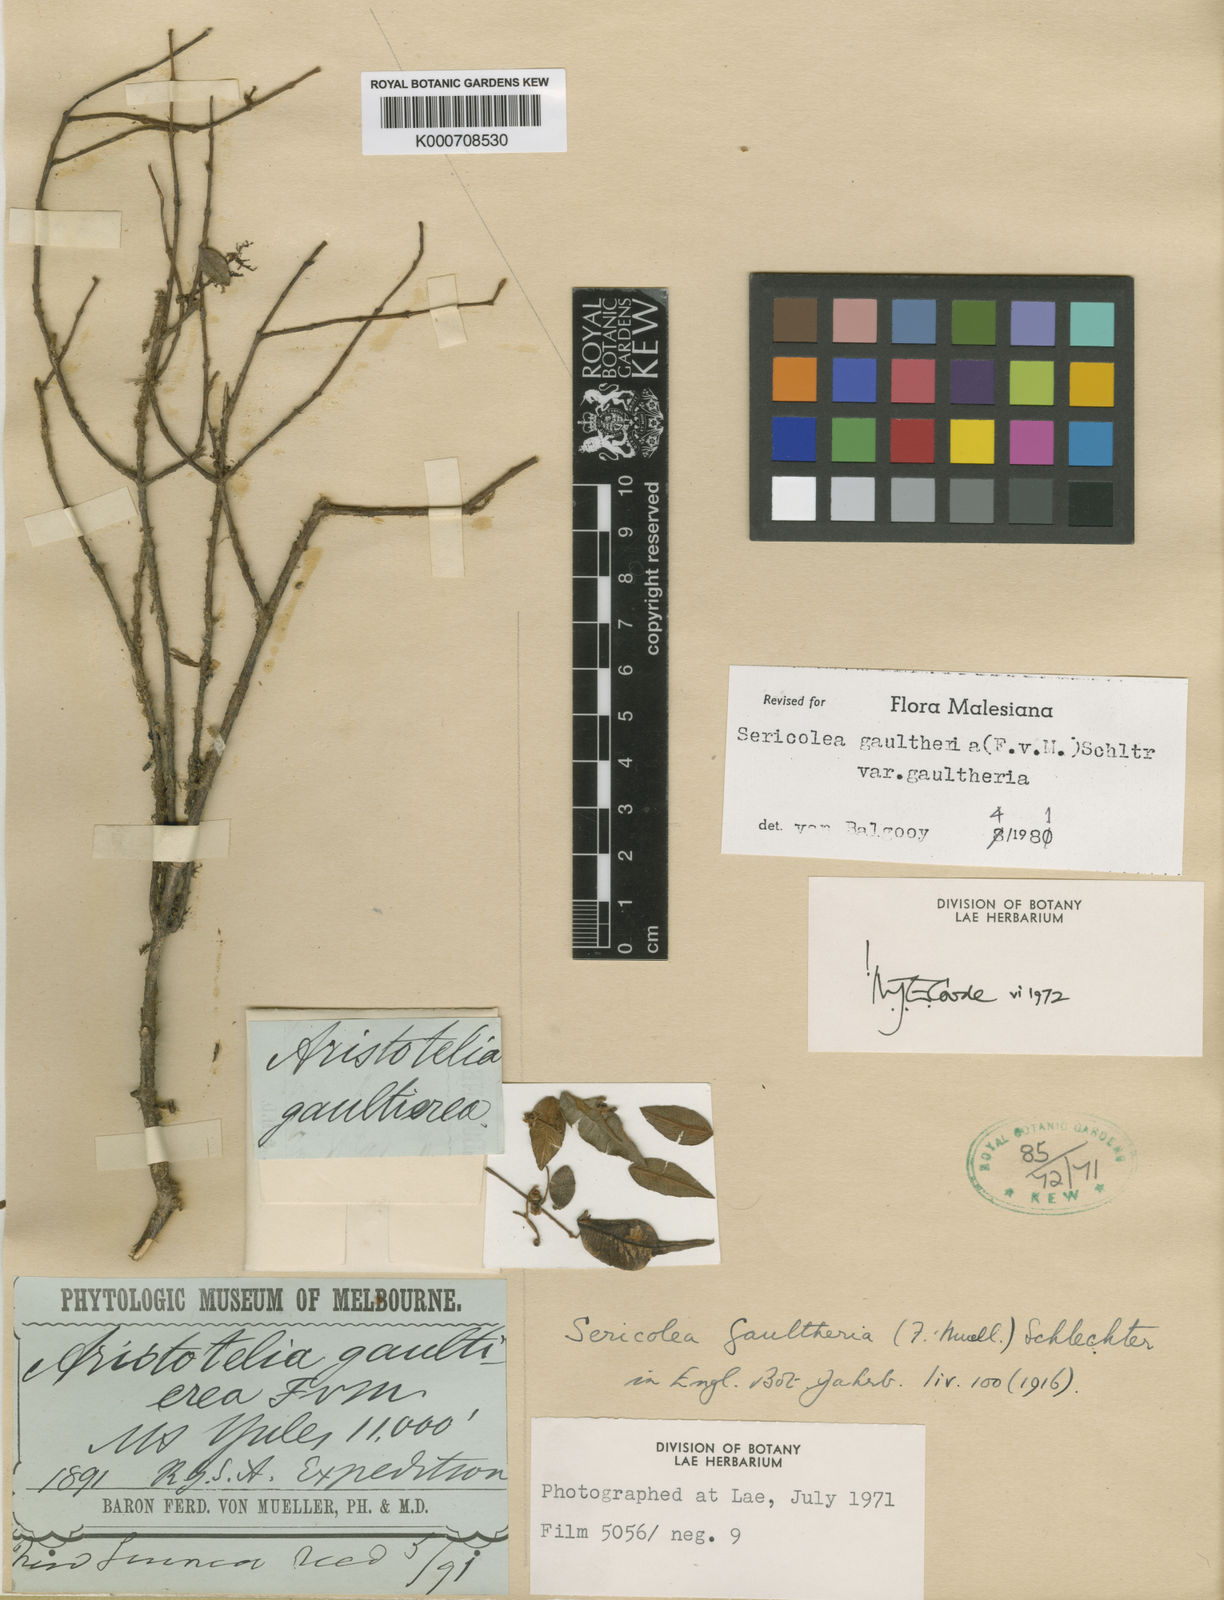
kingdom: Plantae
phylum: Tracheophyta
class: Magnoliopsida
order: Oxalidales
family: Elaeocarpaceae
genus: Sericolea
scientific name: Sericolea gaultheria
